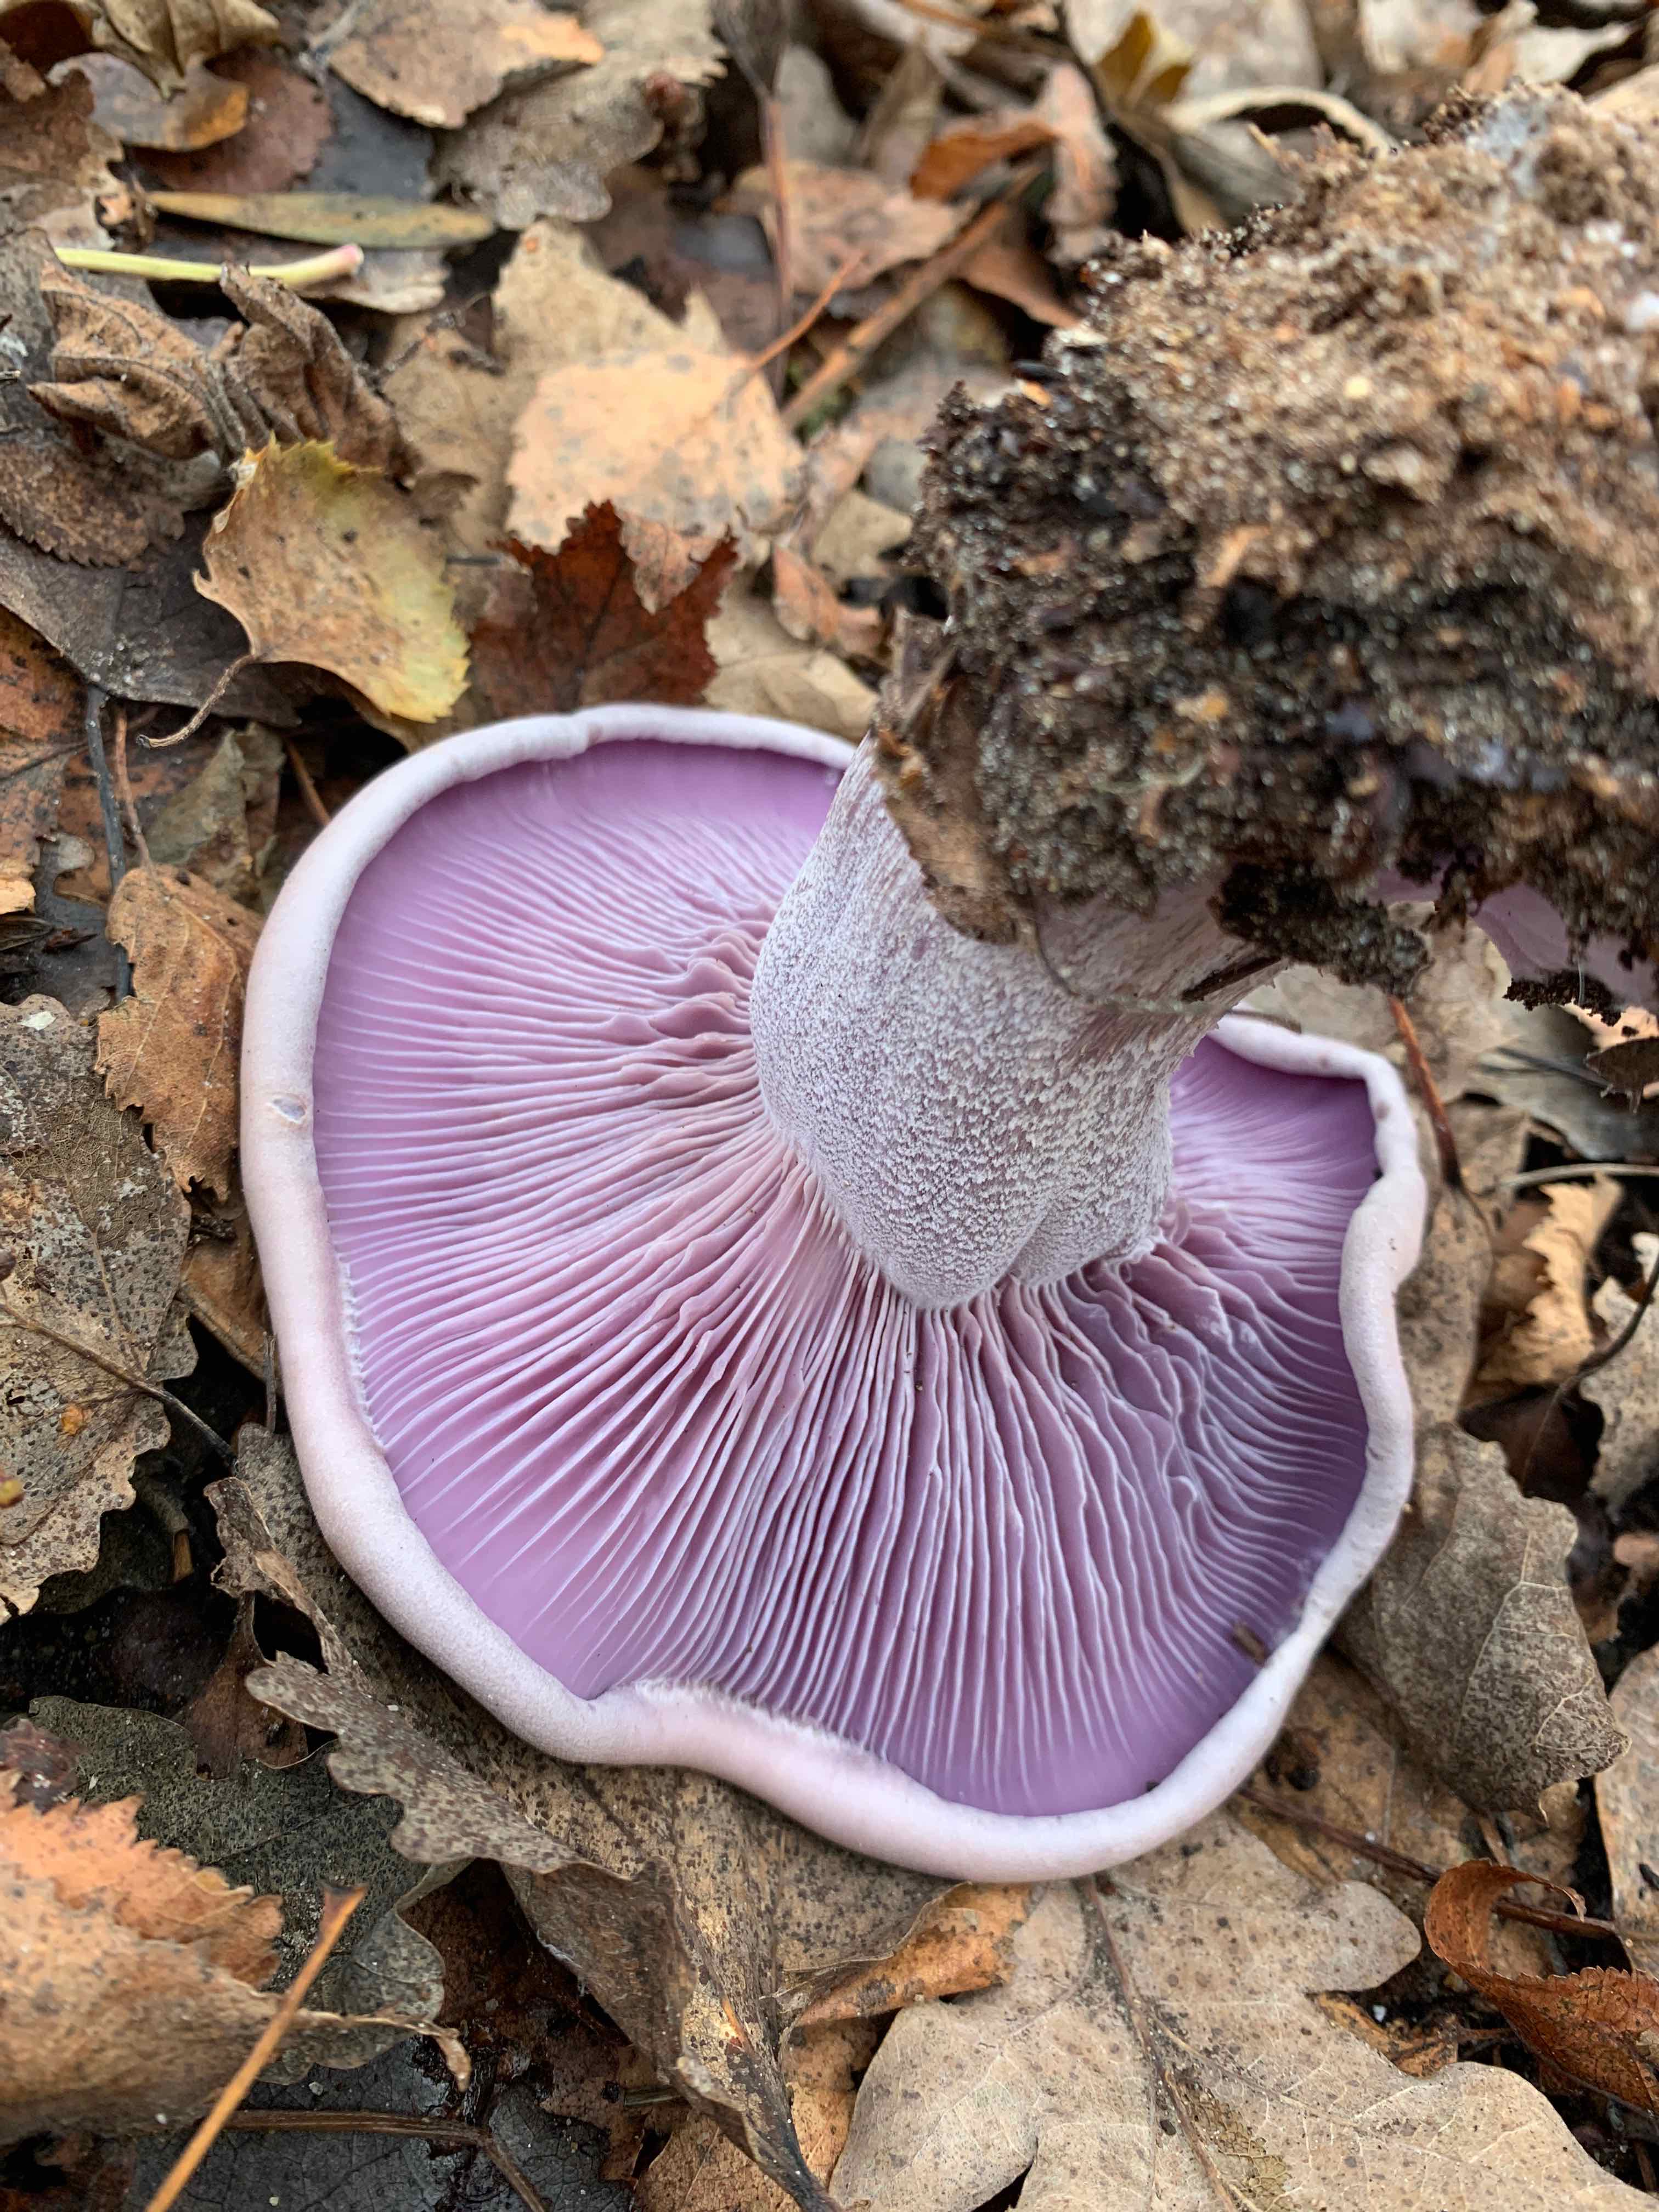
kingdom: Fungi
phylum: Basidiomycota
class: Agaricomycetes
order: Agaricales
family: Tricholomataceae
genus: Lepista
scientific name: Lepista nuda
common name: violet hekseringshat
